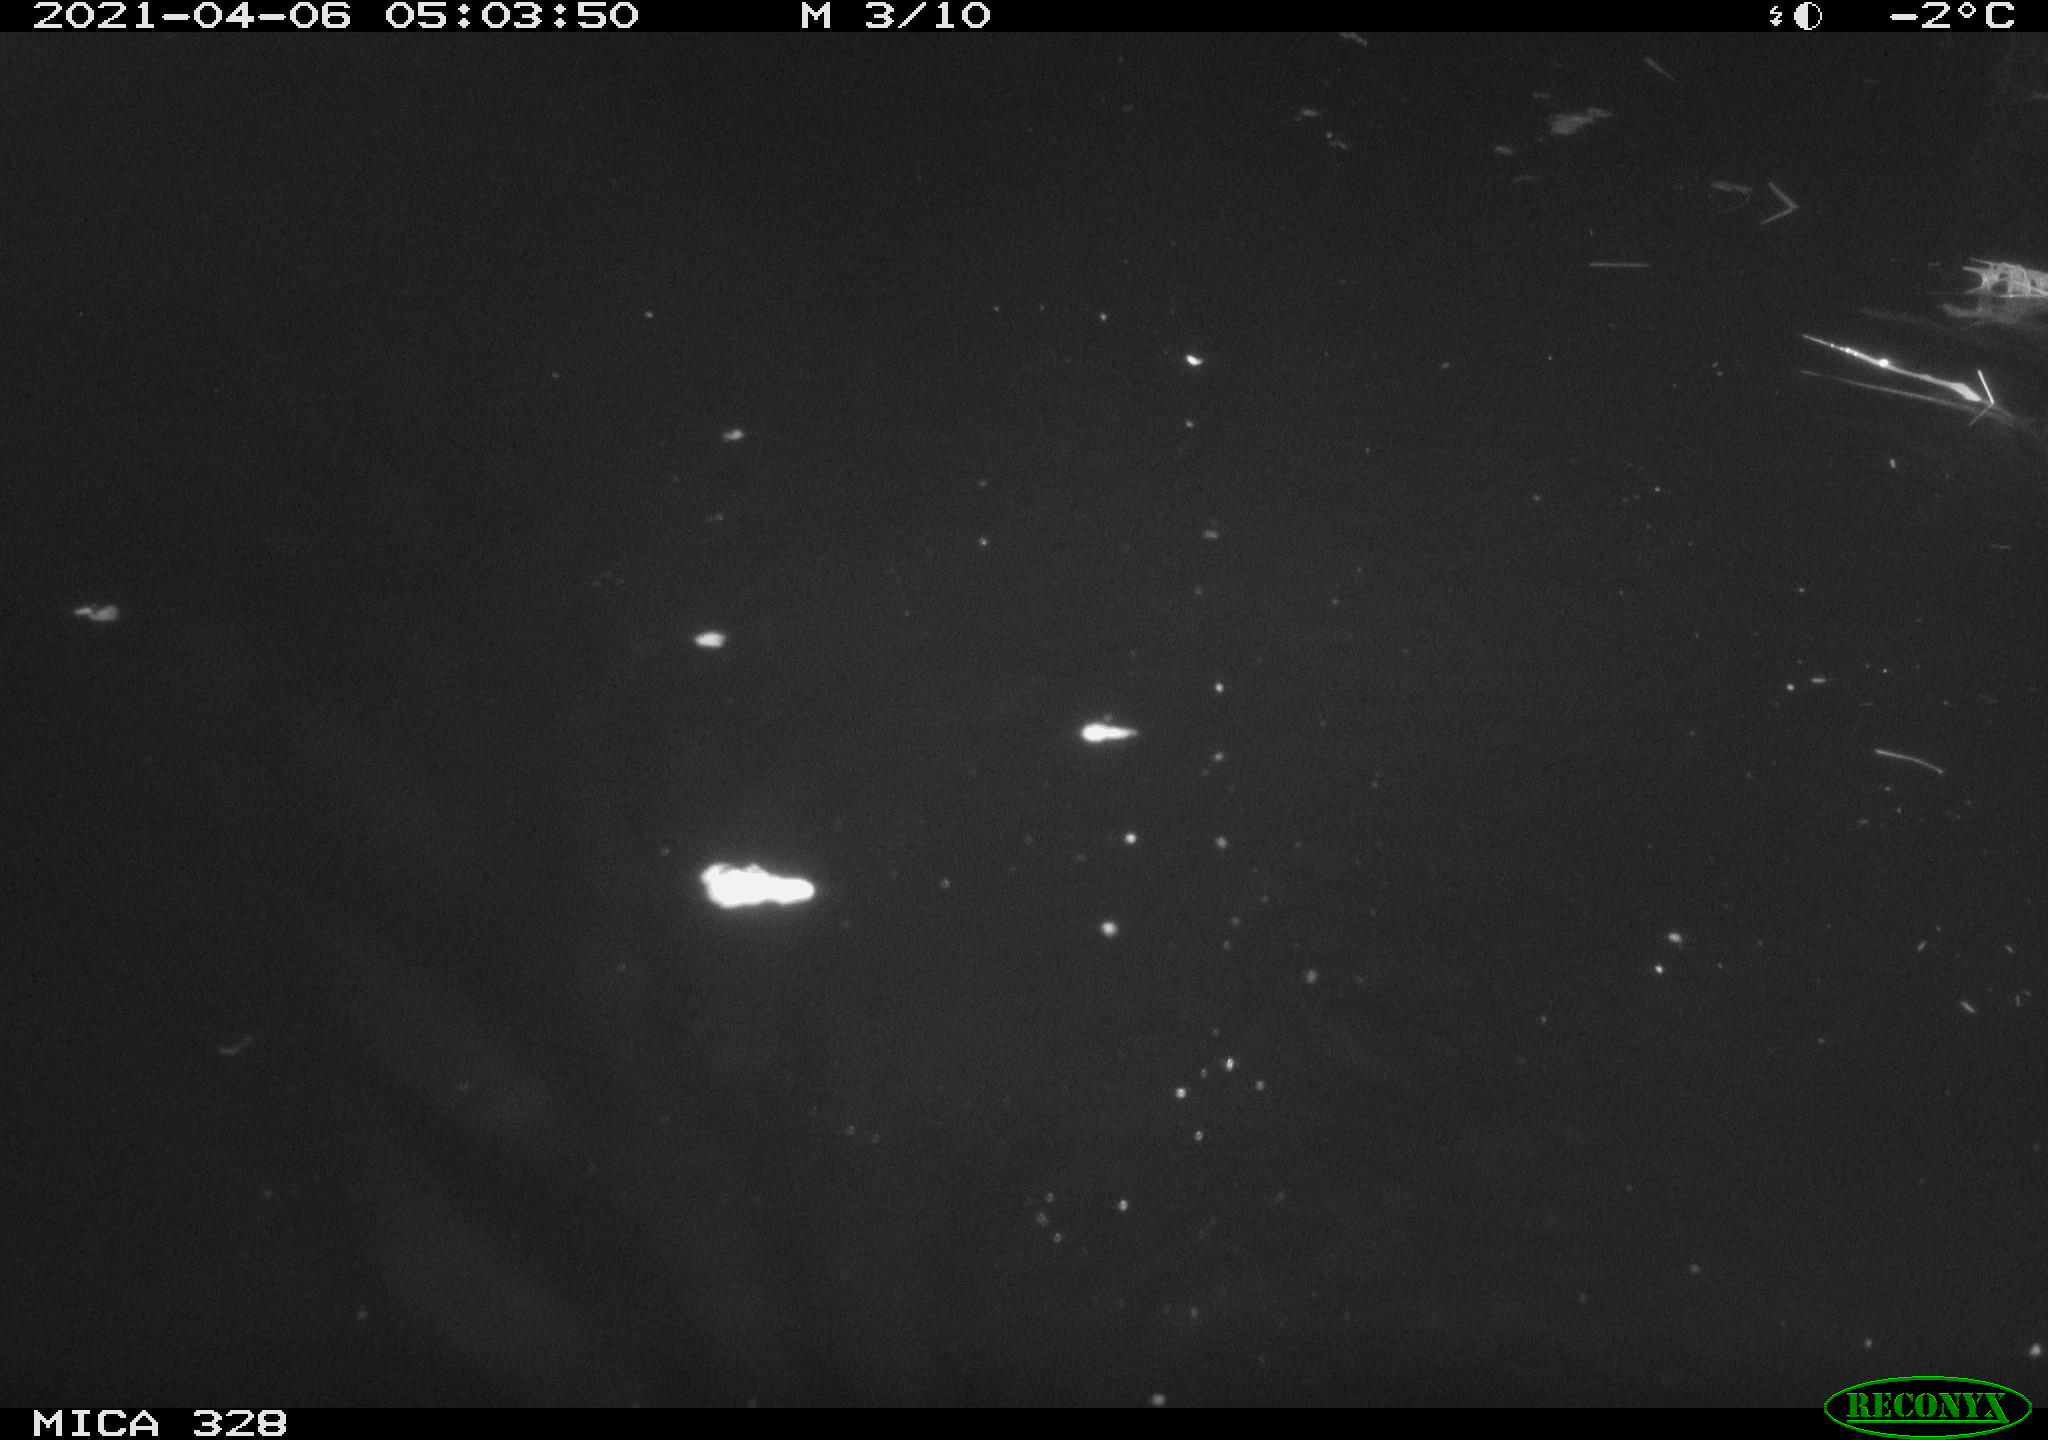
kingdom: Animalia
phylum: Chordata
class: Mammalia
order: Rodentia
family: Cricetidae
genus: Ondatra
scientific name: Ondatra zibethicus
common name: Muskrat
